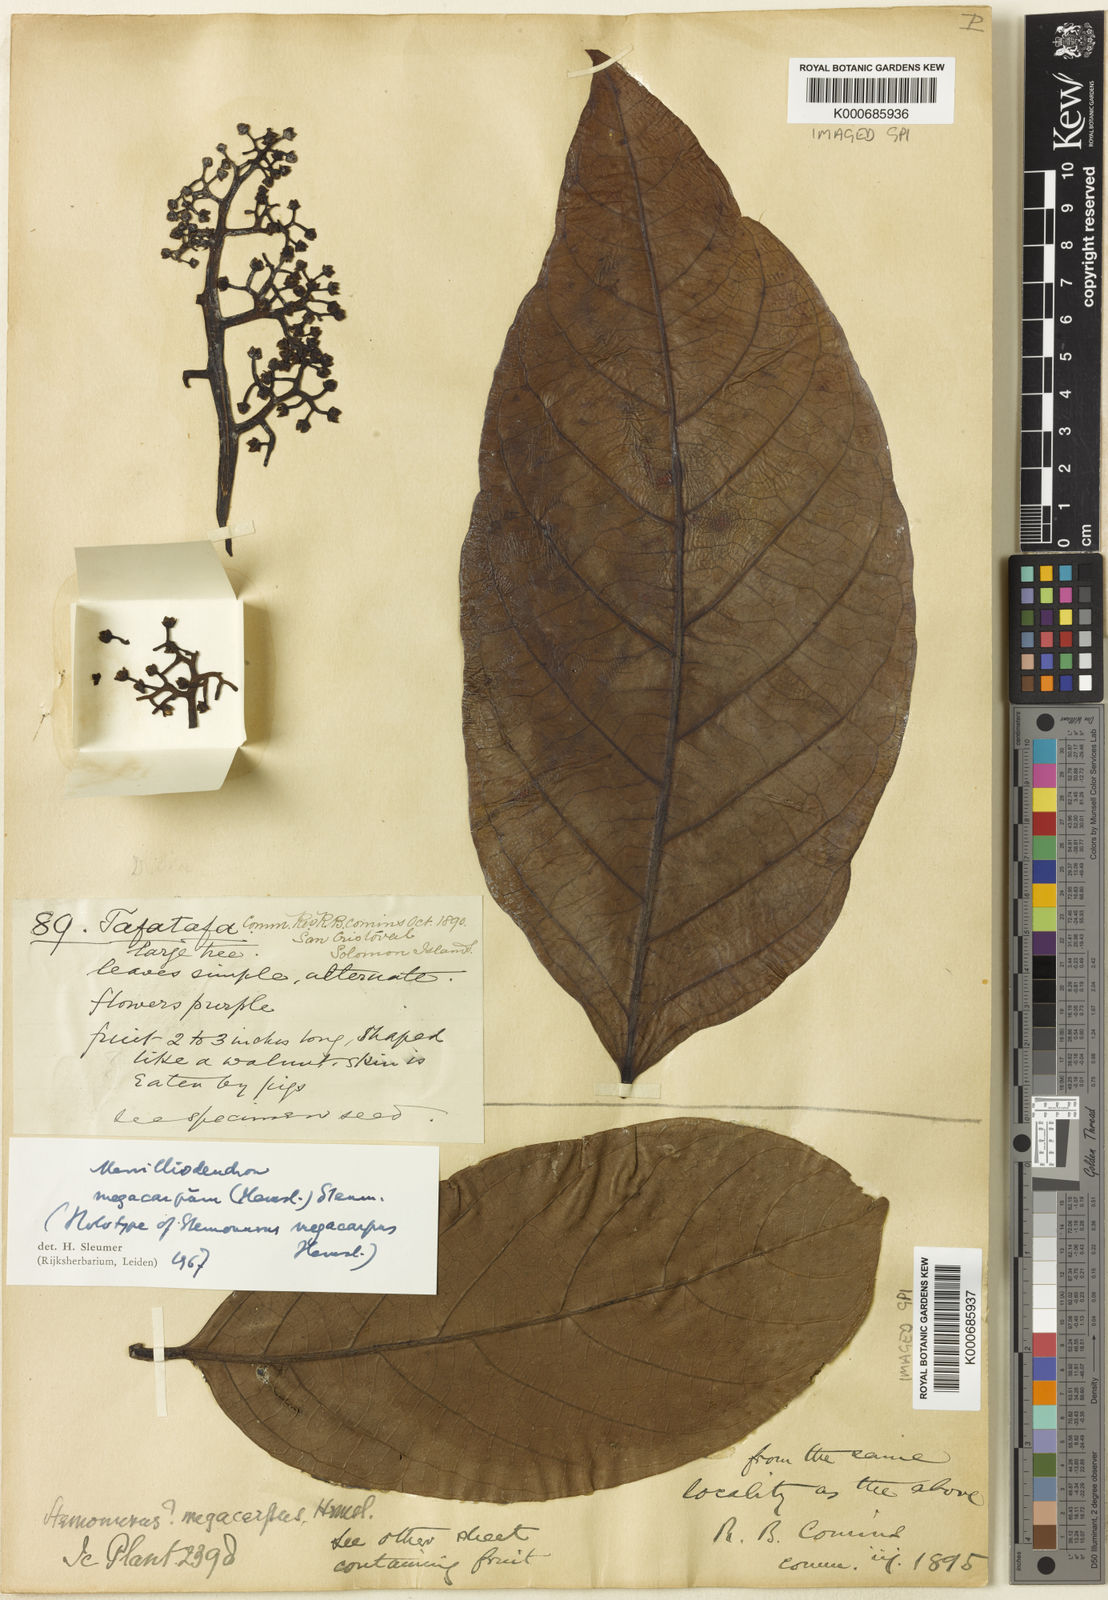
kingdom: Plantae
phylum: Tracheophyta
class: Magnoliopsida
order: Icacinales
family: Icacinaceae
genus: Merrilliodendron
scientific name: Merrilliodendron megacarpum
